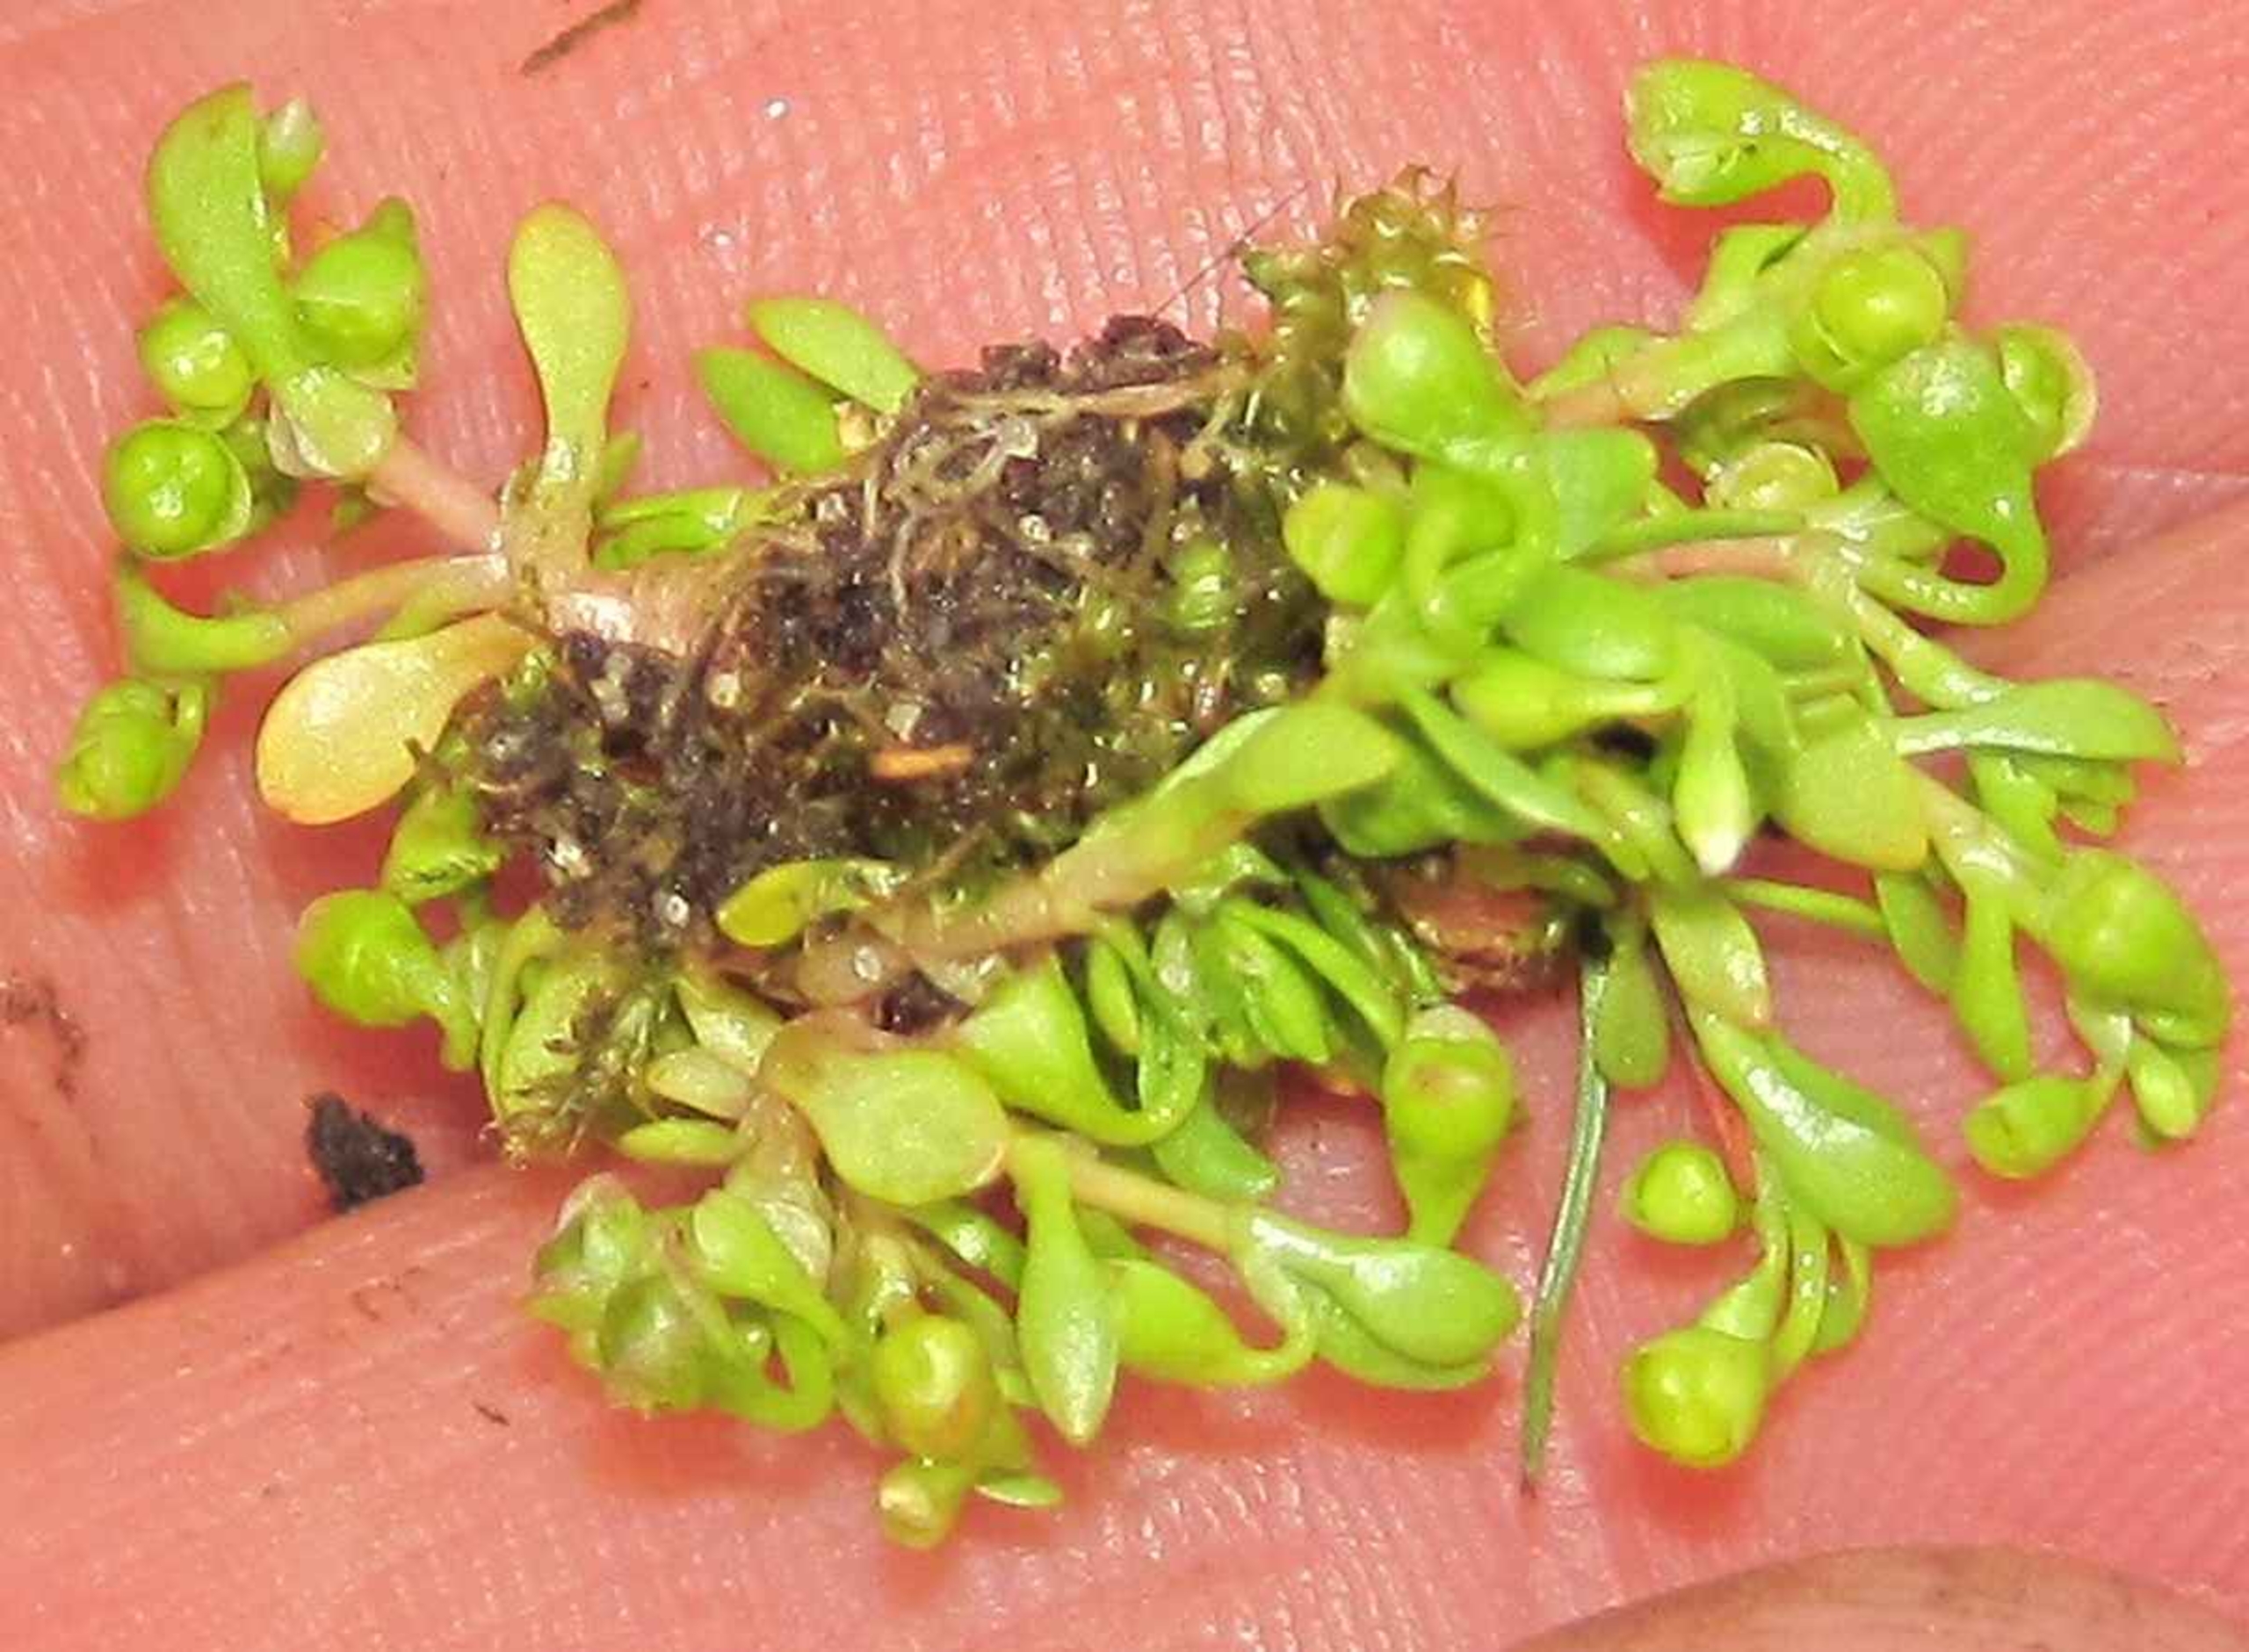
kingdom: Plantae
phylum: Tracheophyta
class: Magnoliopsida
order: Caryophyllales
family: Montiaceae
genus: Montia
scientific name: Montia arvensis
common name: Liden vandarve
